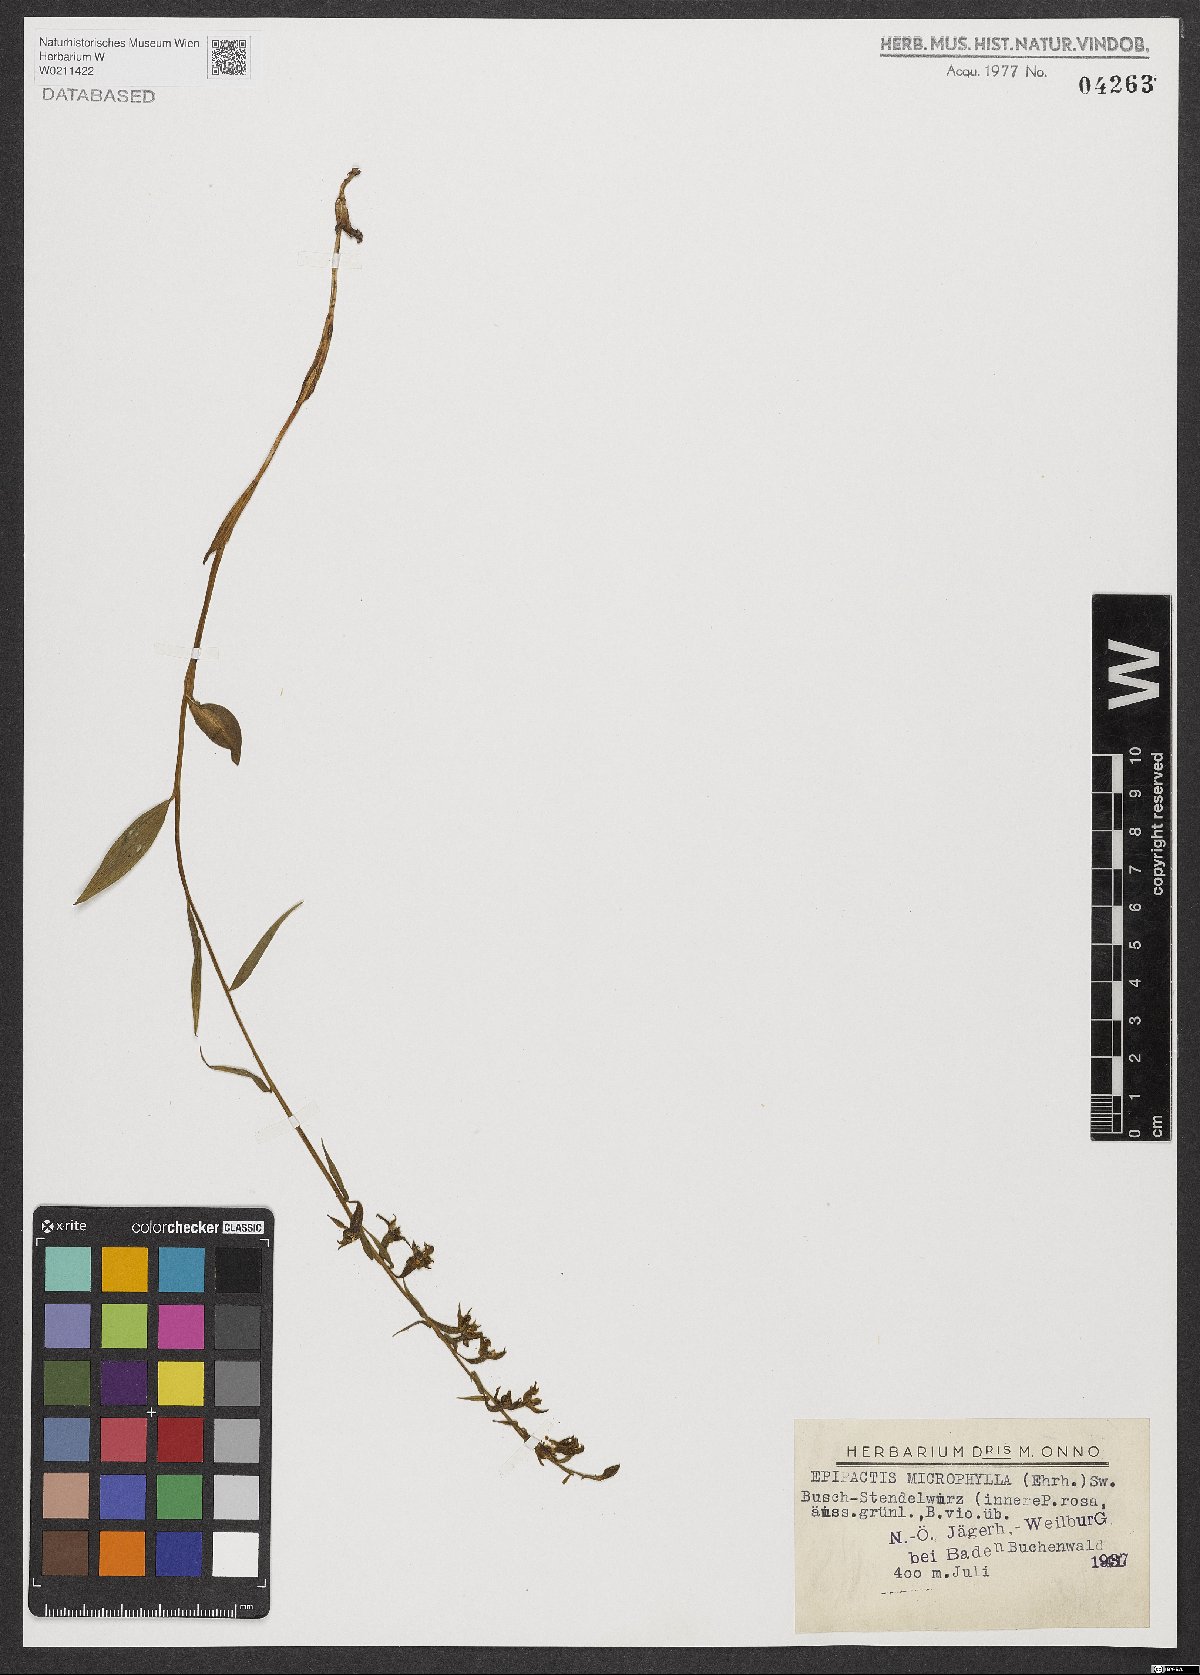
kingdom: Plantae
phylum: Tracheophyta
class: Liliopsida
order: Asparagales
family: Orchidaceae
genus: Epipactis
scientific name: Epipactis microphylla
